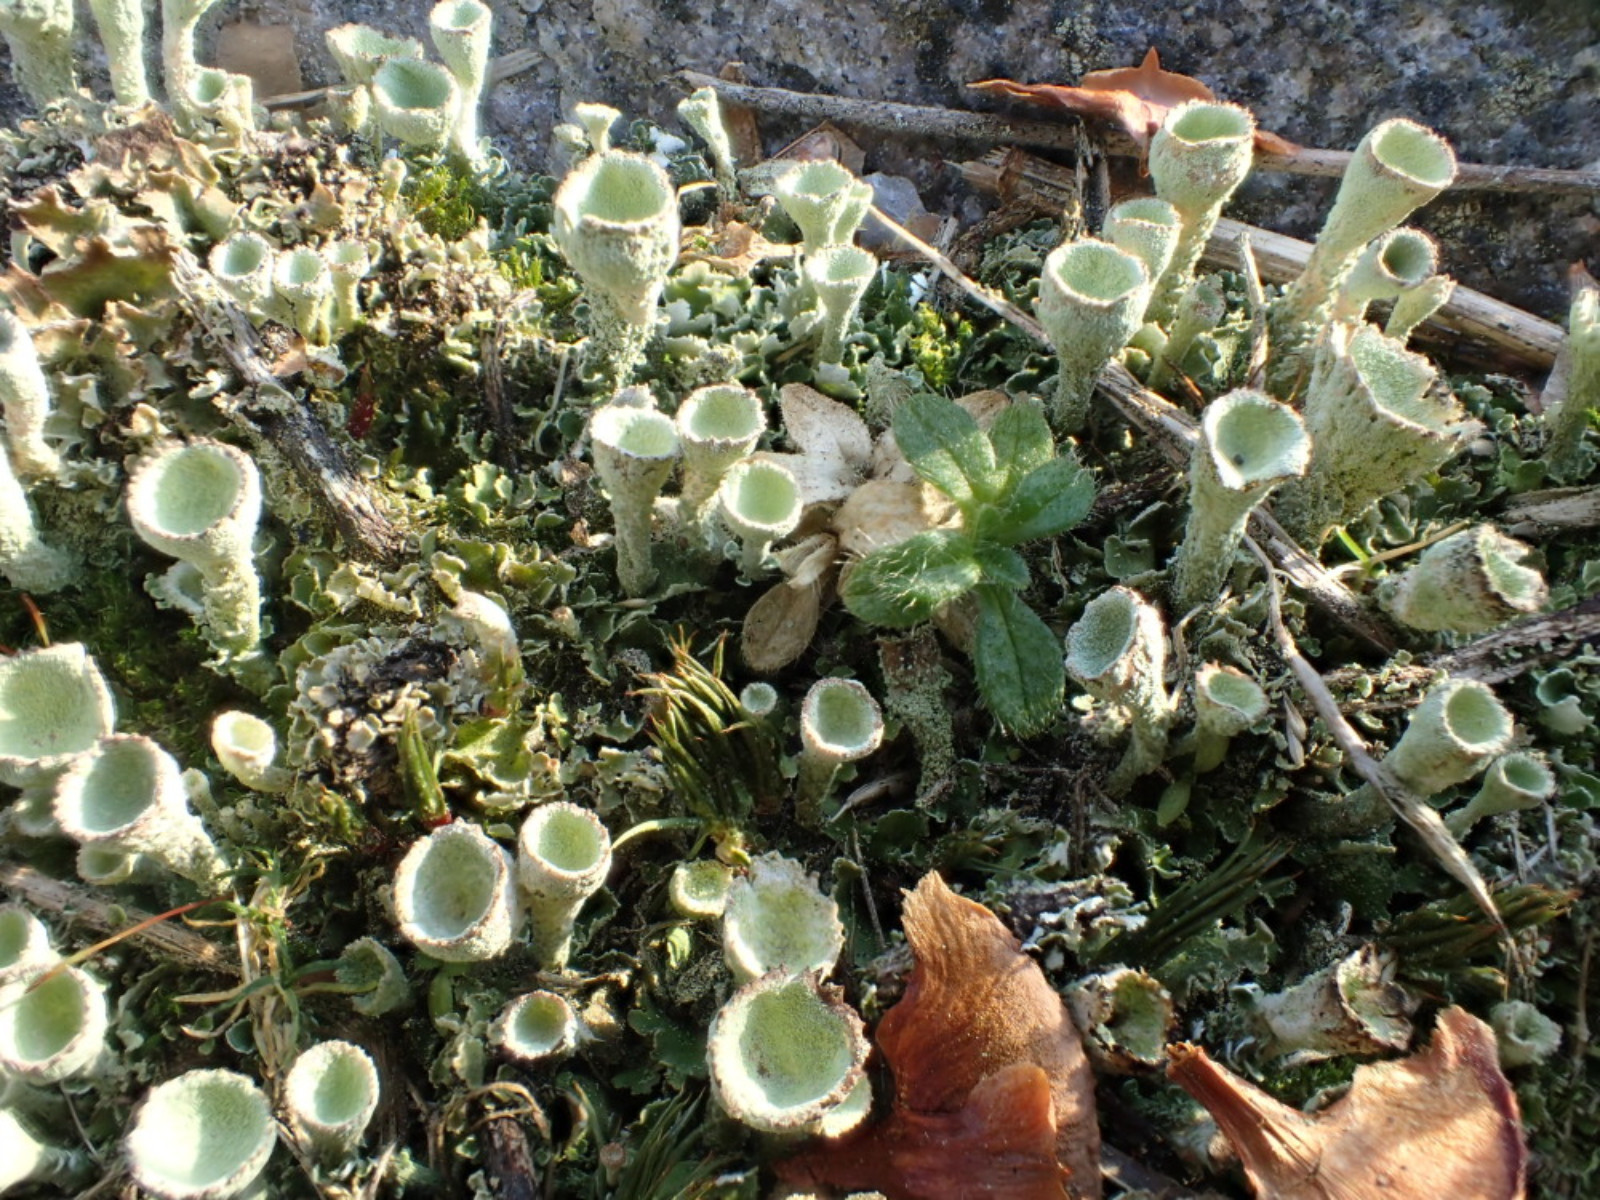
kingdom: Fungi
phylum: Ascomycota
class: Lecanoromycetes
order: Lecanorales
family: Cladoniaceae
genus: Cladonia
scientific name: Cladonia humilis
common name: lav bægerlav
